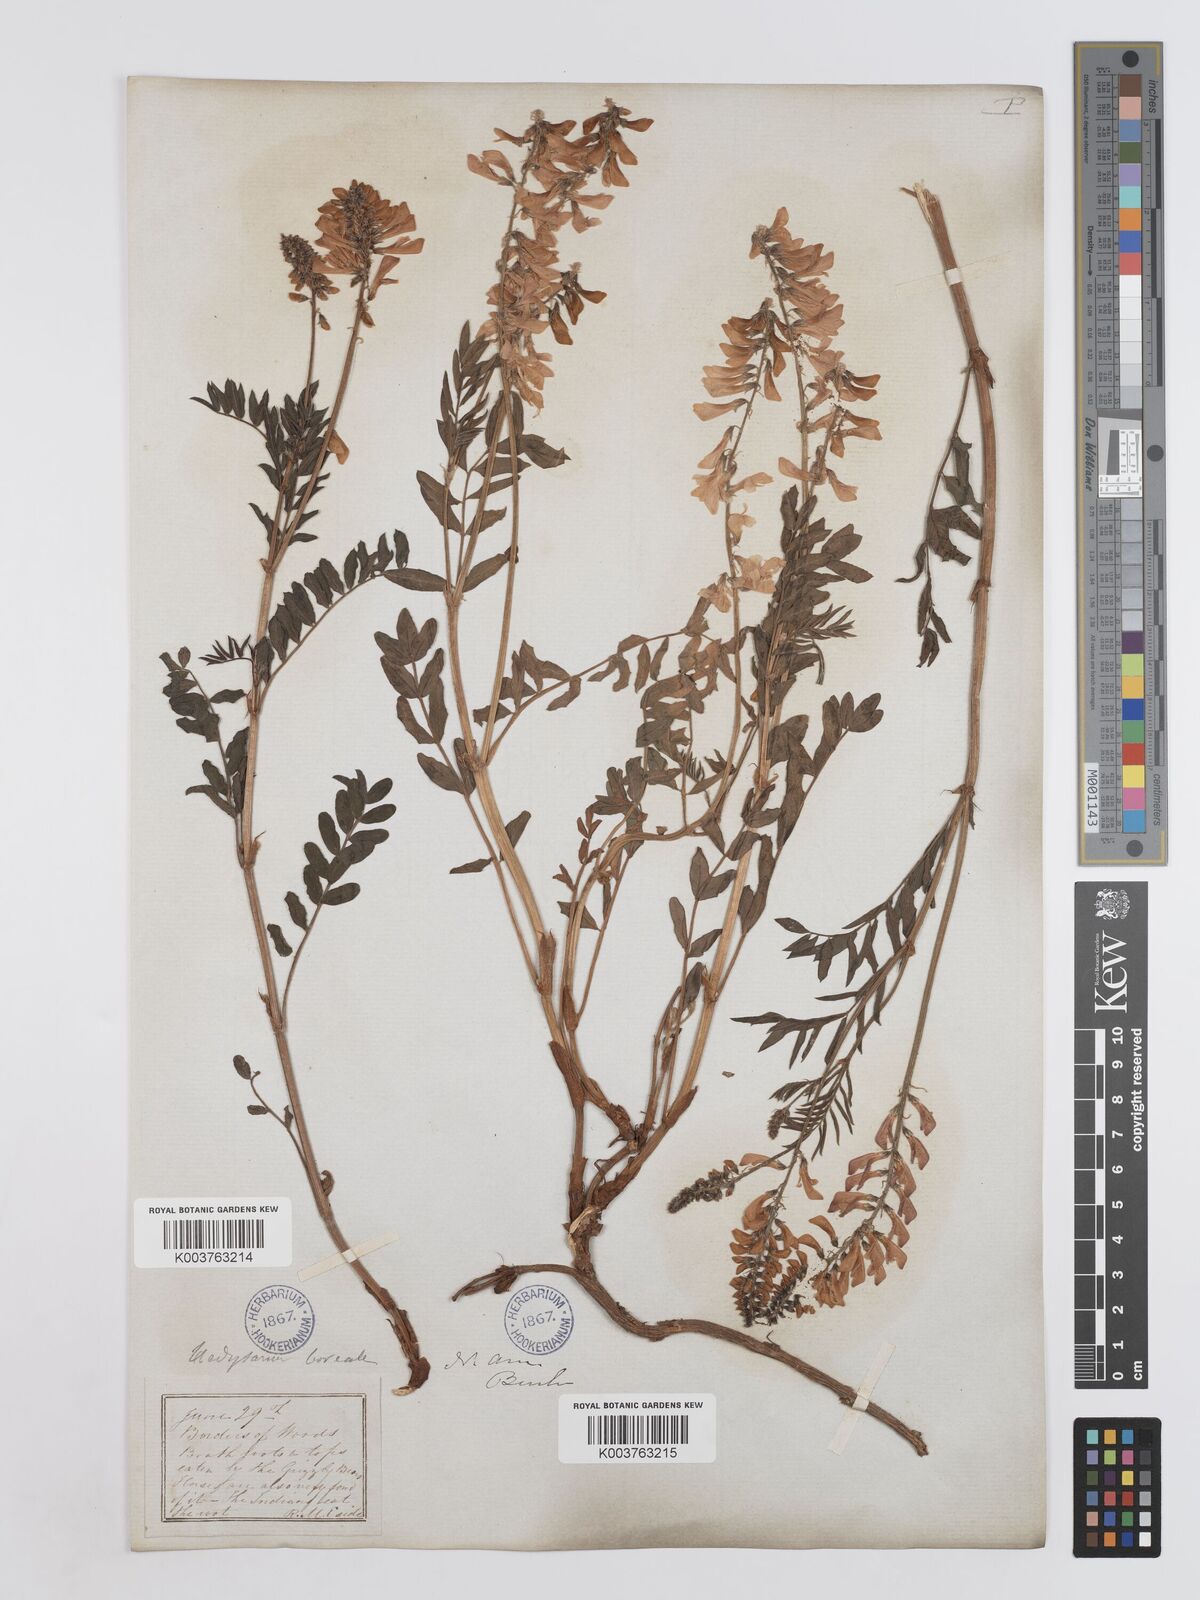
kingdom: Plantae
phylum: Tracheophyta
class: Magnoliopsida
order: Fabales
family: Fabaceae
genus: Hedysarum
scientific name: Hedysarum boreale
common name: Northern sweet-vetch
